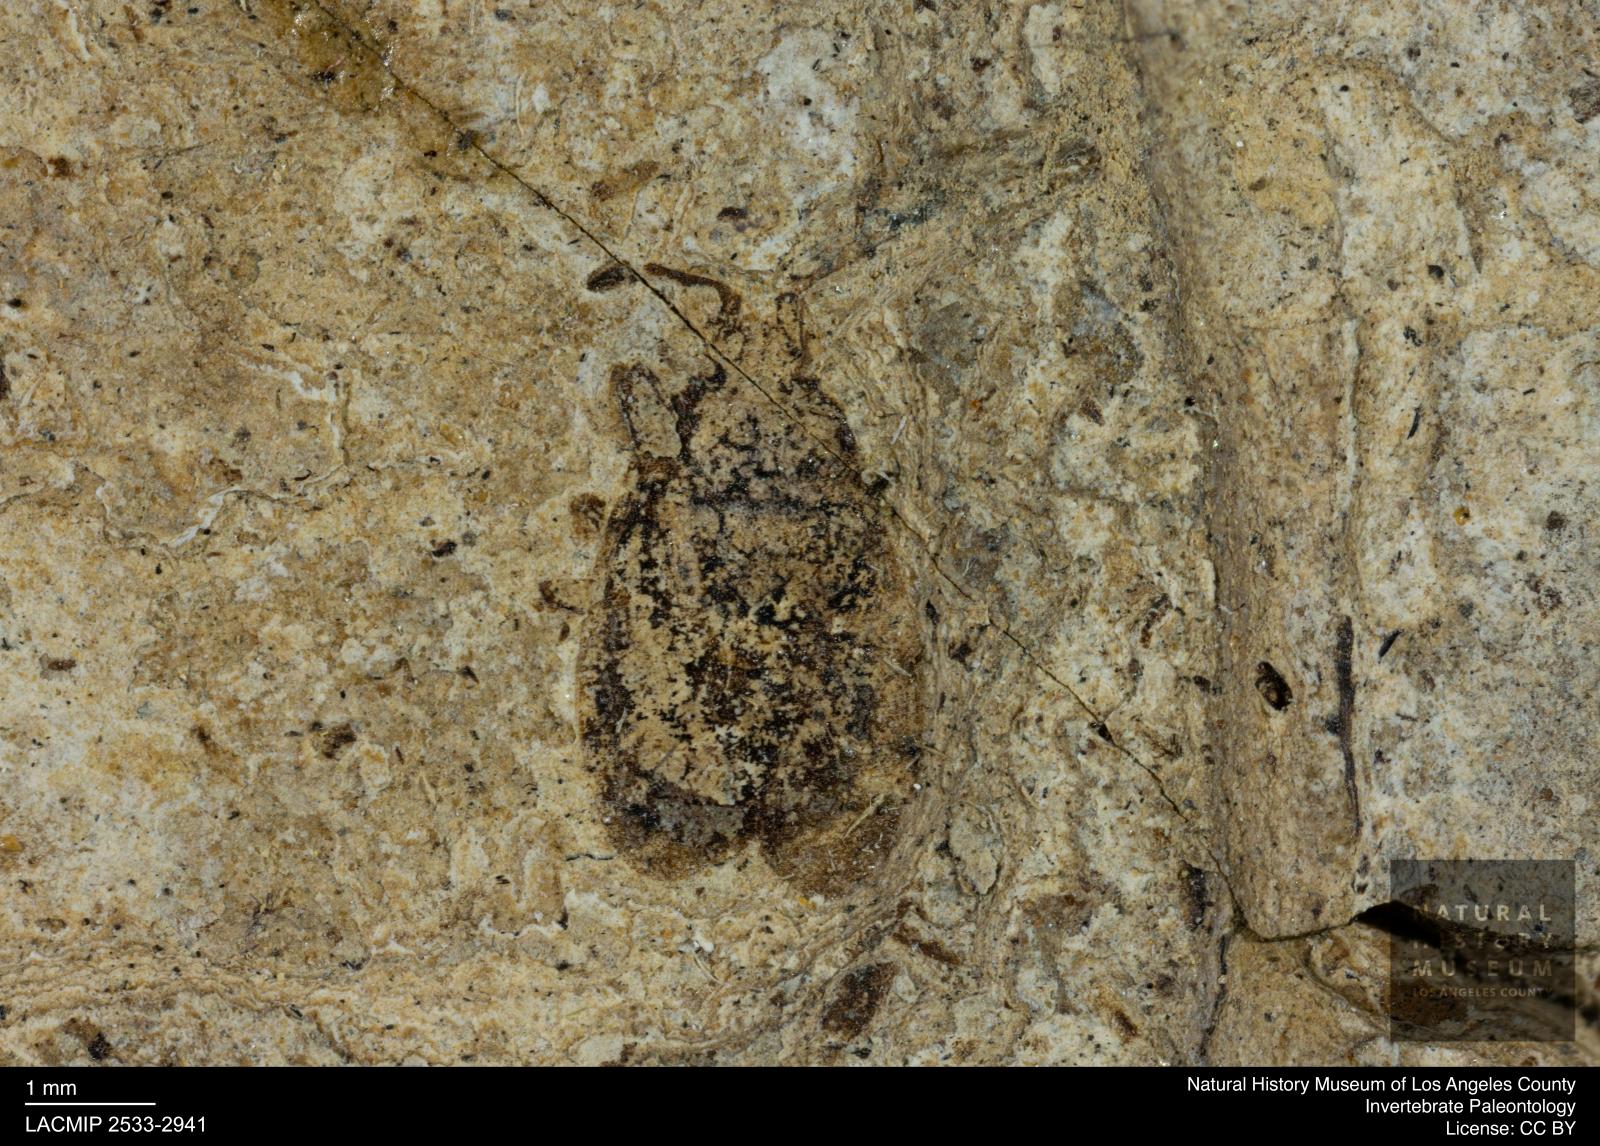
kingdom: Animalia
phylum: Arthropoda
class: Insecta
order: Hemiptera
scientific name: Hemiptera
